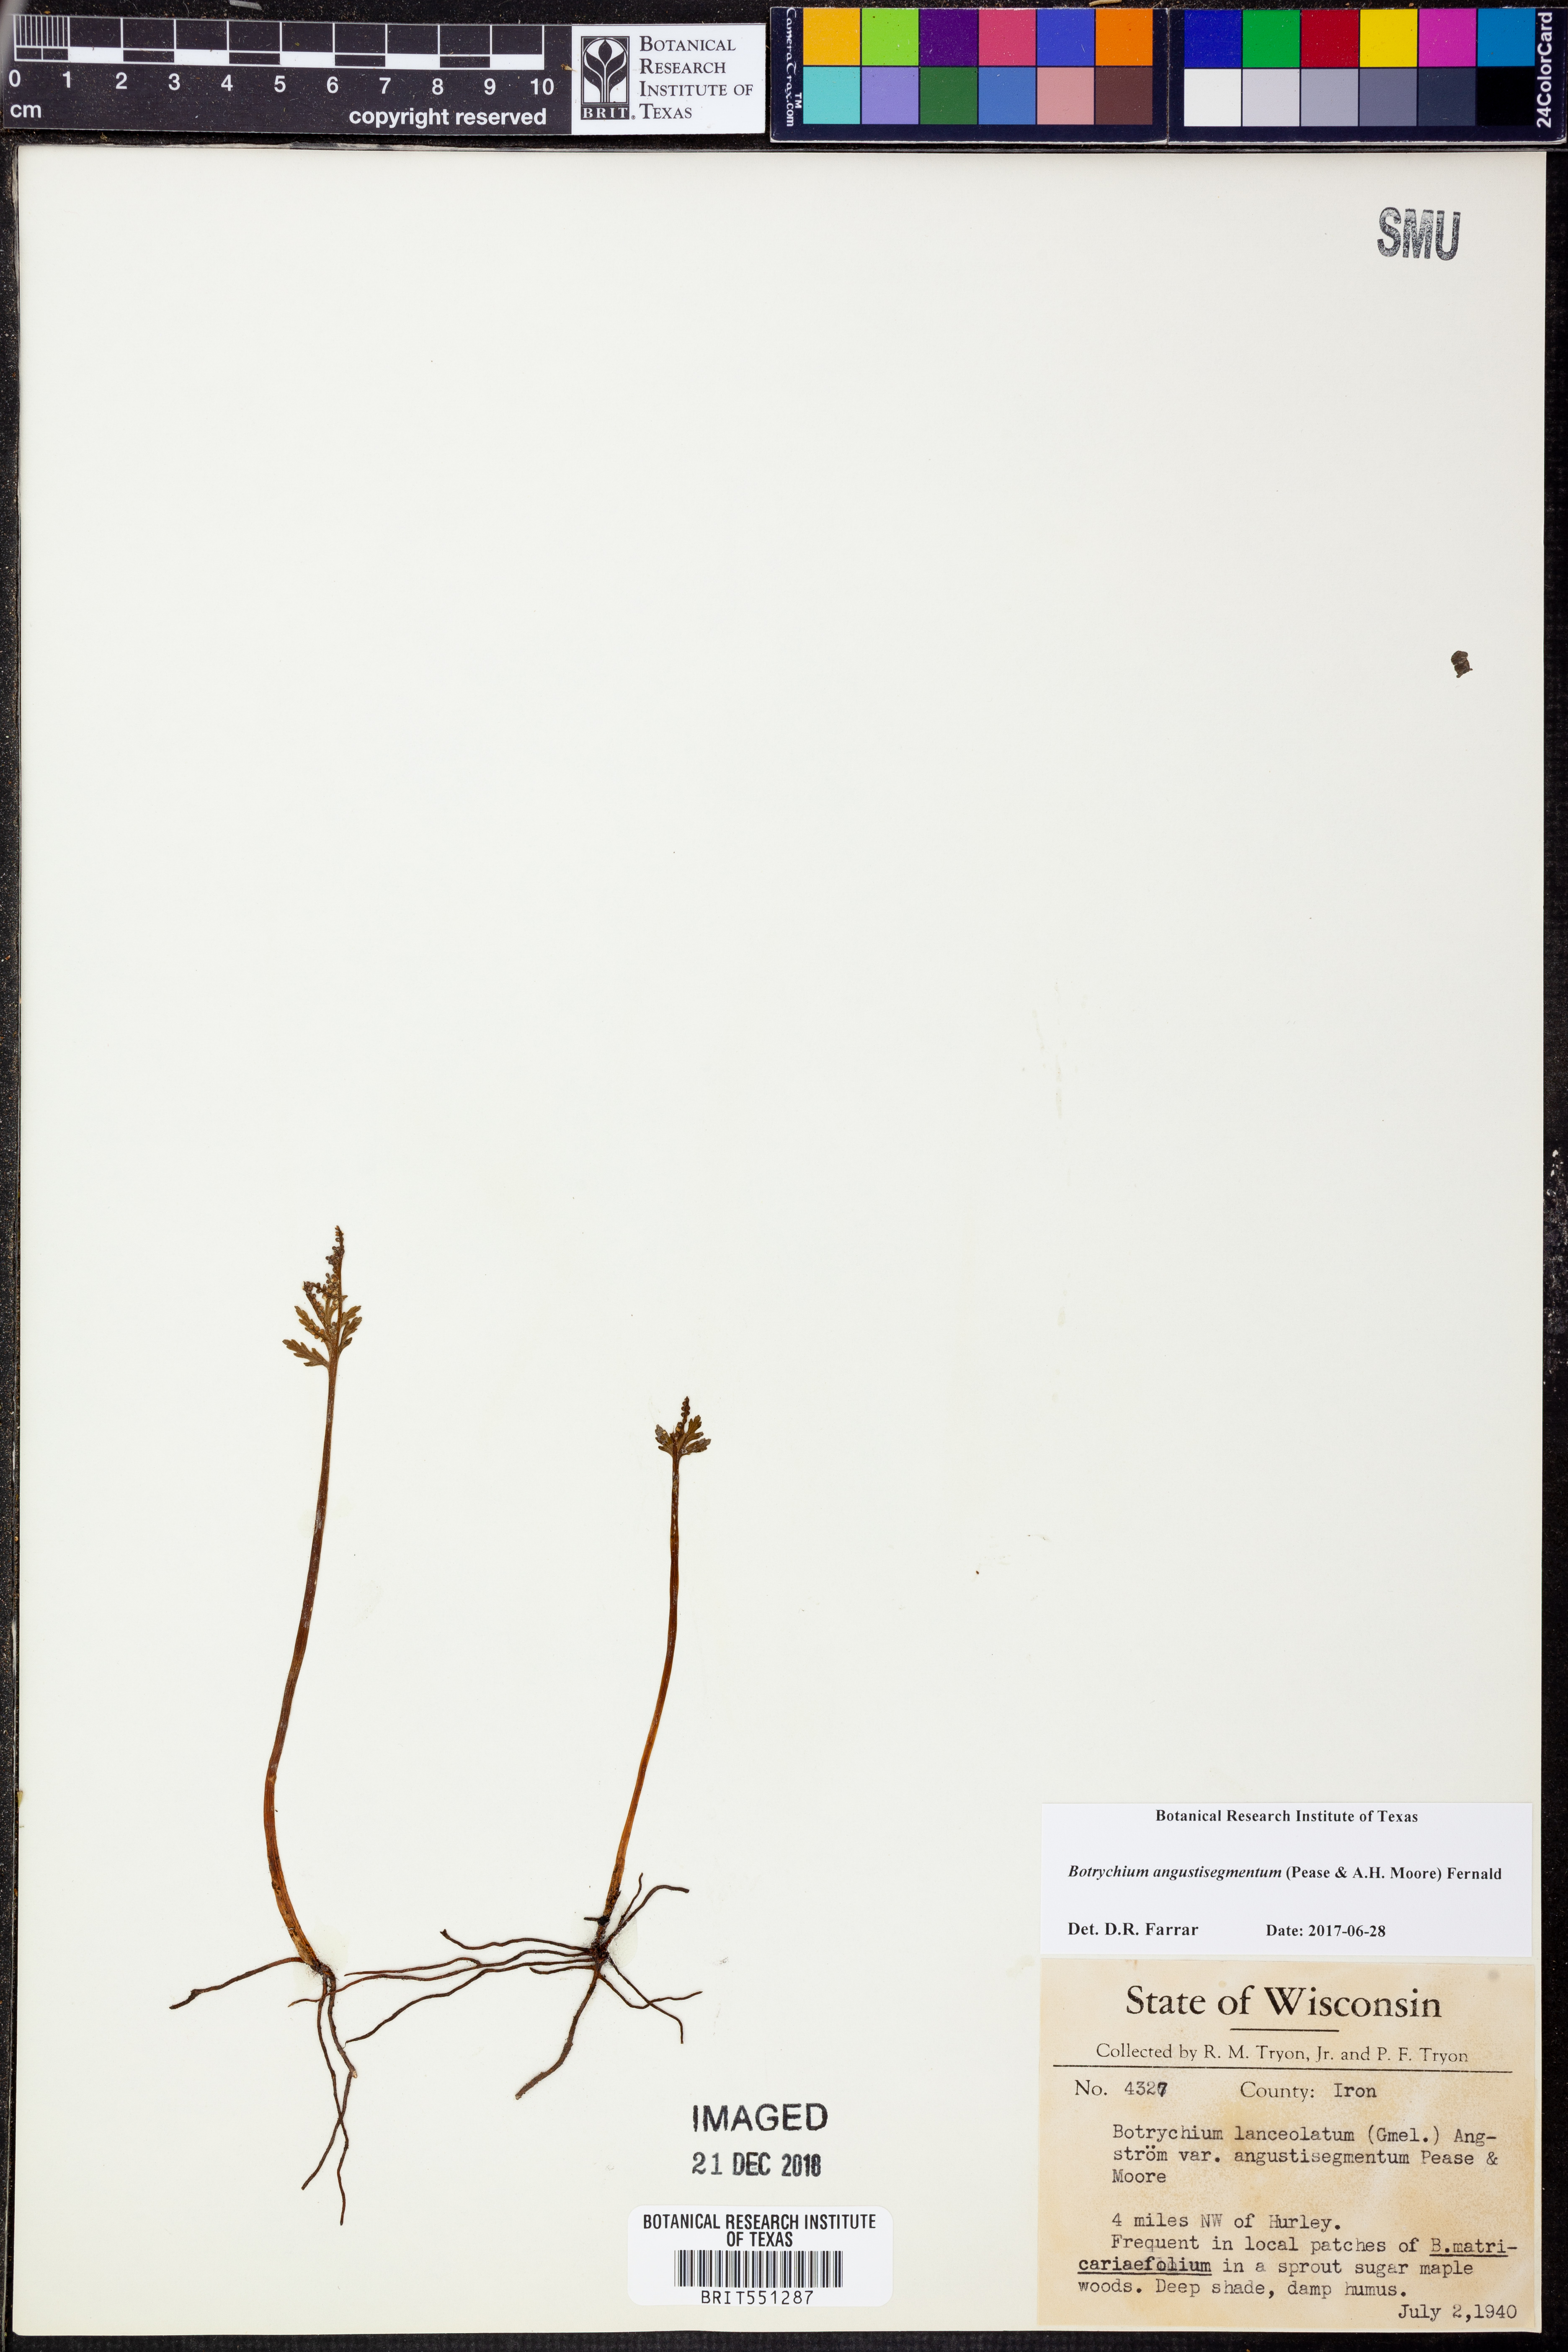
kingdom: Plantae
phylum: Tracheophyta
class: Polypodiopsida
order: Ophioglossales
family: Ophioglossaceae
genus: Botrychium
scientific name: Botrychium angustisegmentum
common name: Narrow triangle moonwort
